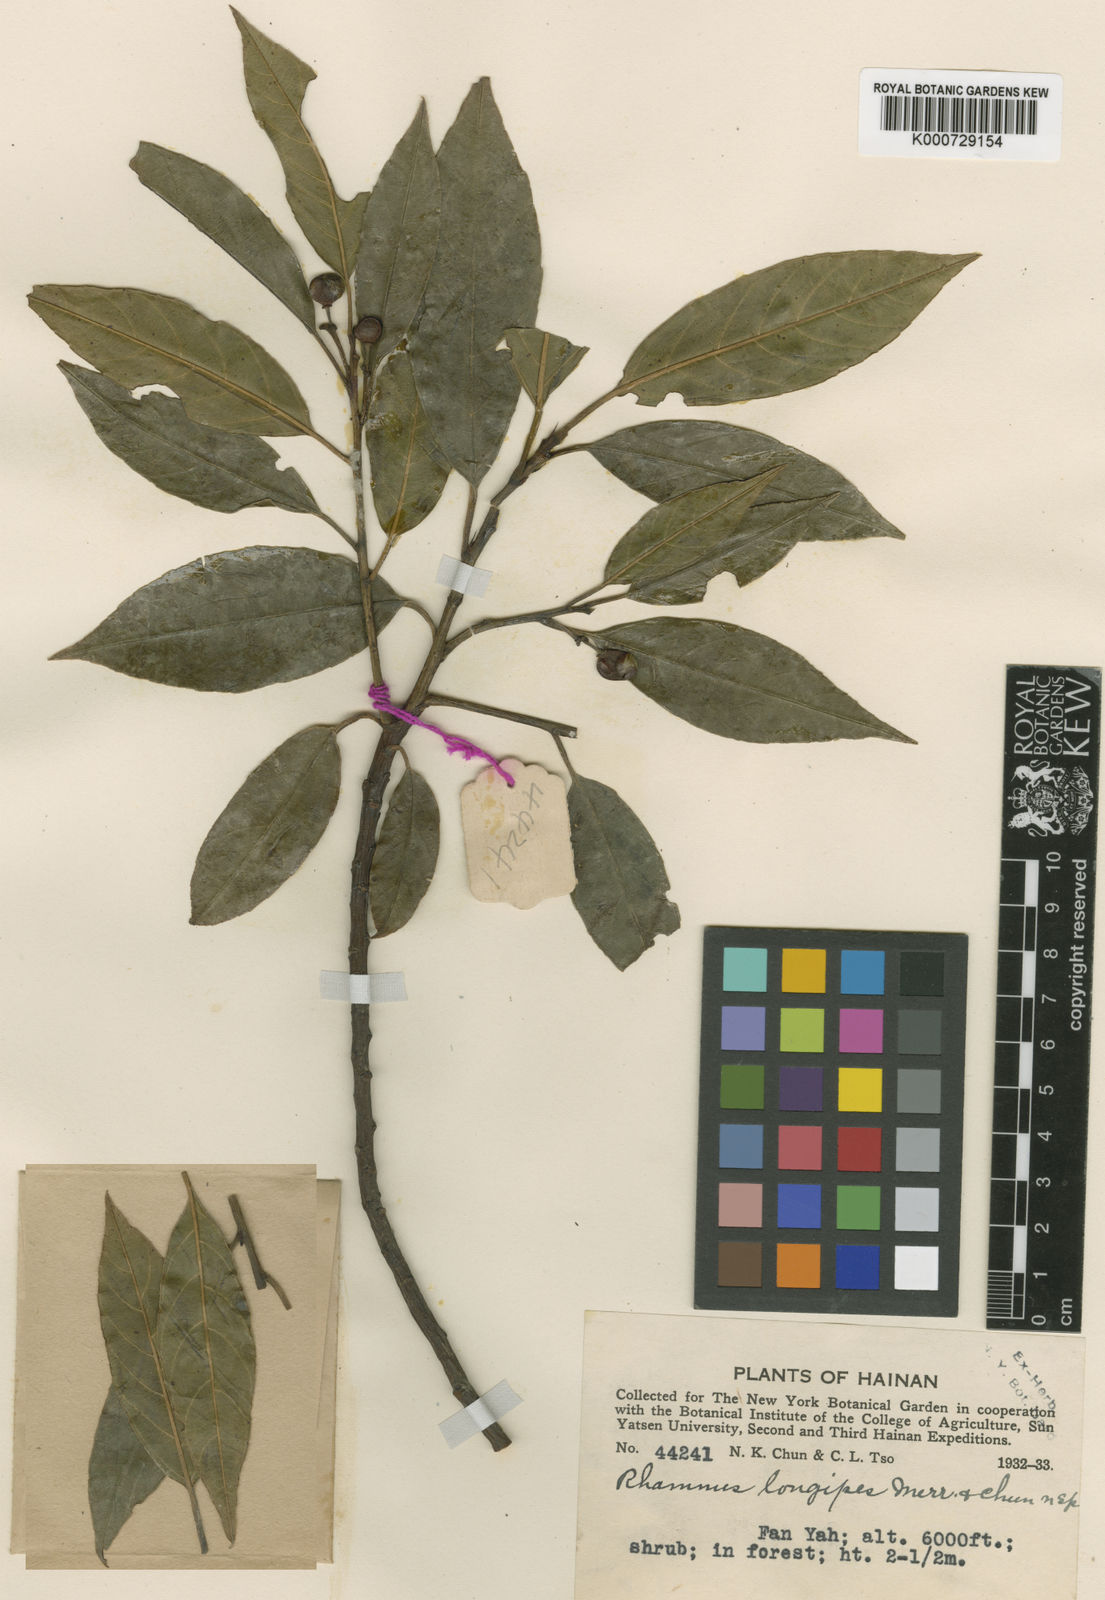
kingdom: Plantae
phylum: Tracheophyta
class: Magnoliopsida
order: Rosales
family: Rhamnaceae
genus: Frangula
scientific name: Frangula longipes
